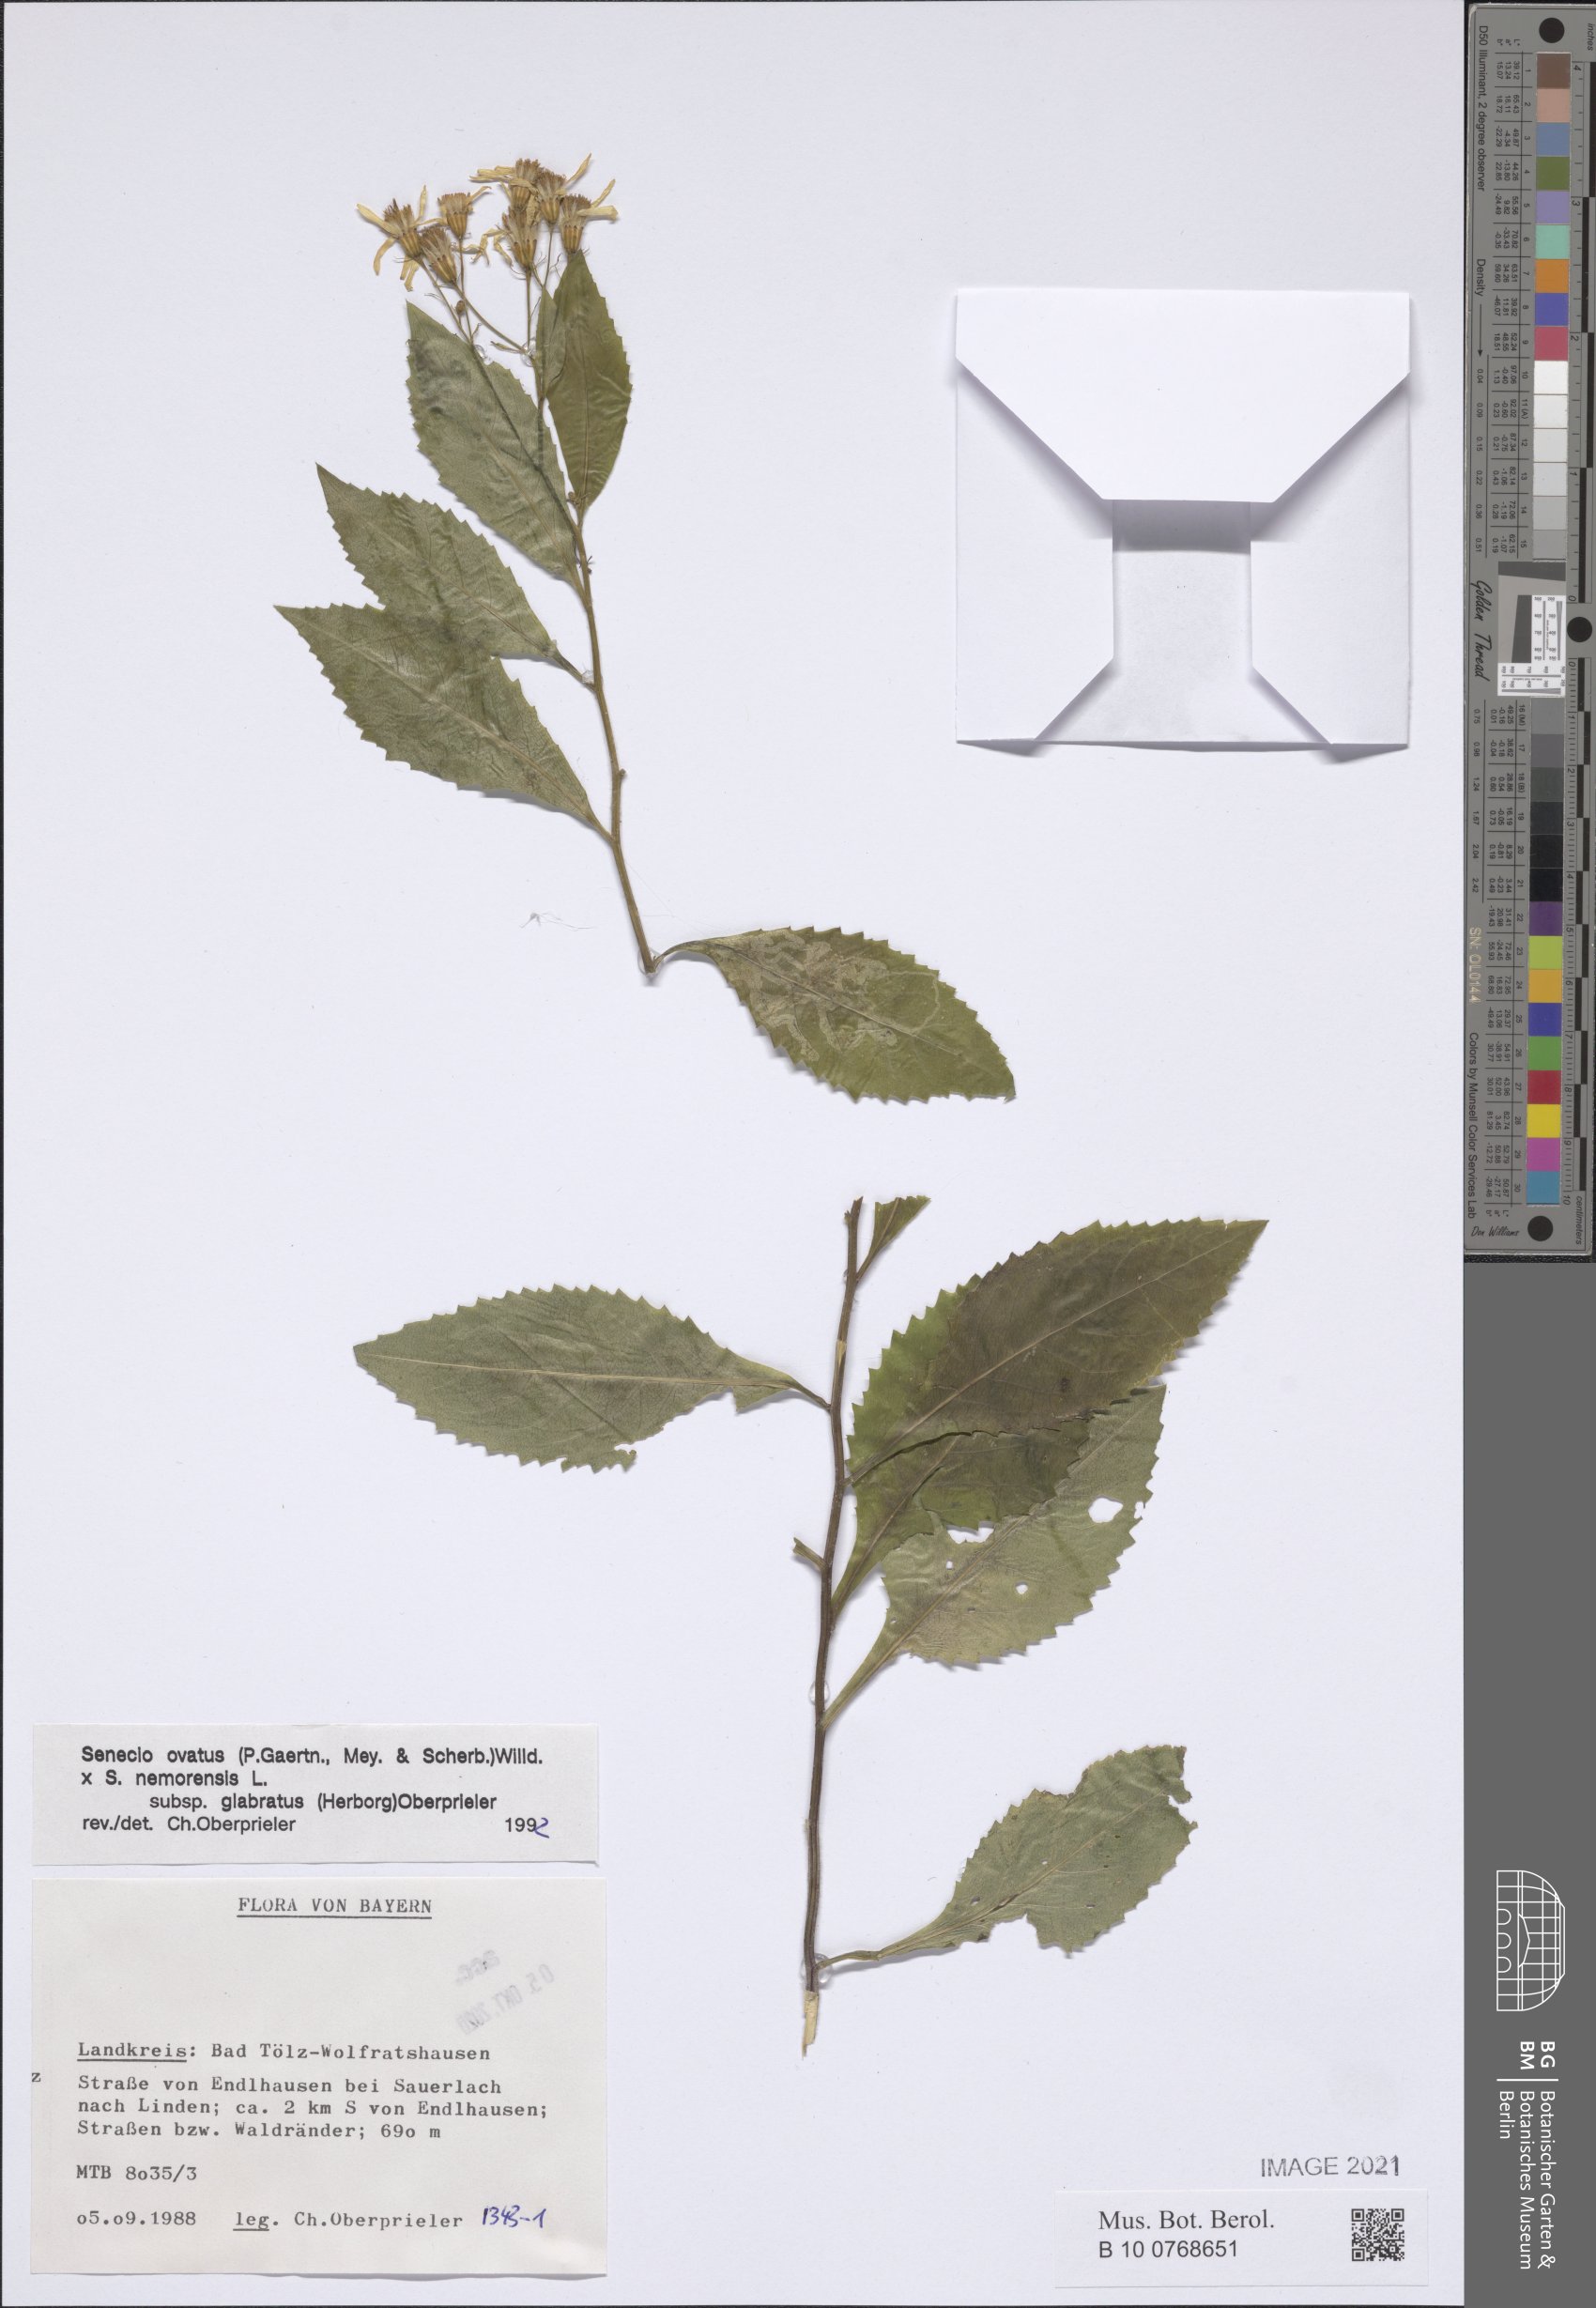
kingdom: Plantae
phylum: Tracheophyta
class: Magnoliopsida
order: Asterales
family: Asteraceae
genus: Senecio
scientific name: Senecio ovatus
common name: Wood ragwort
